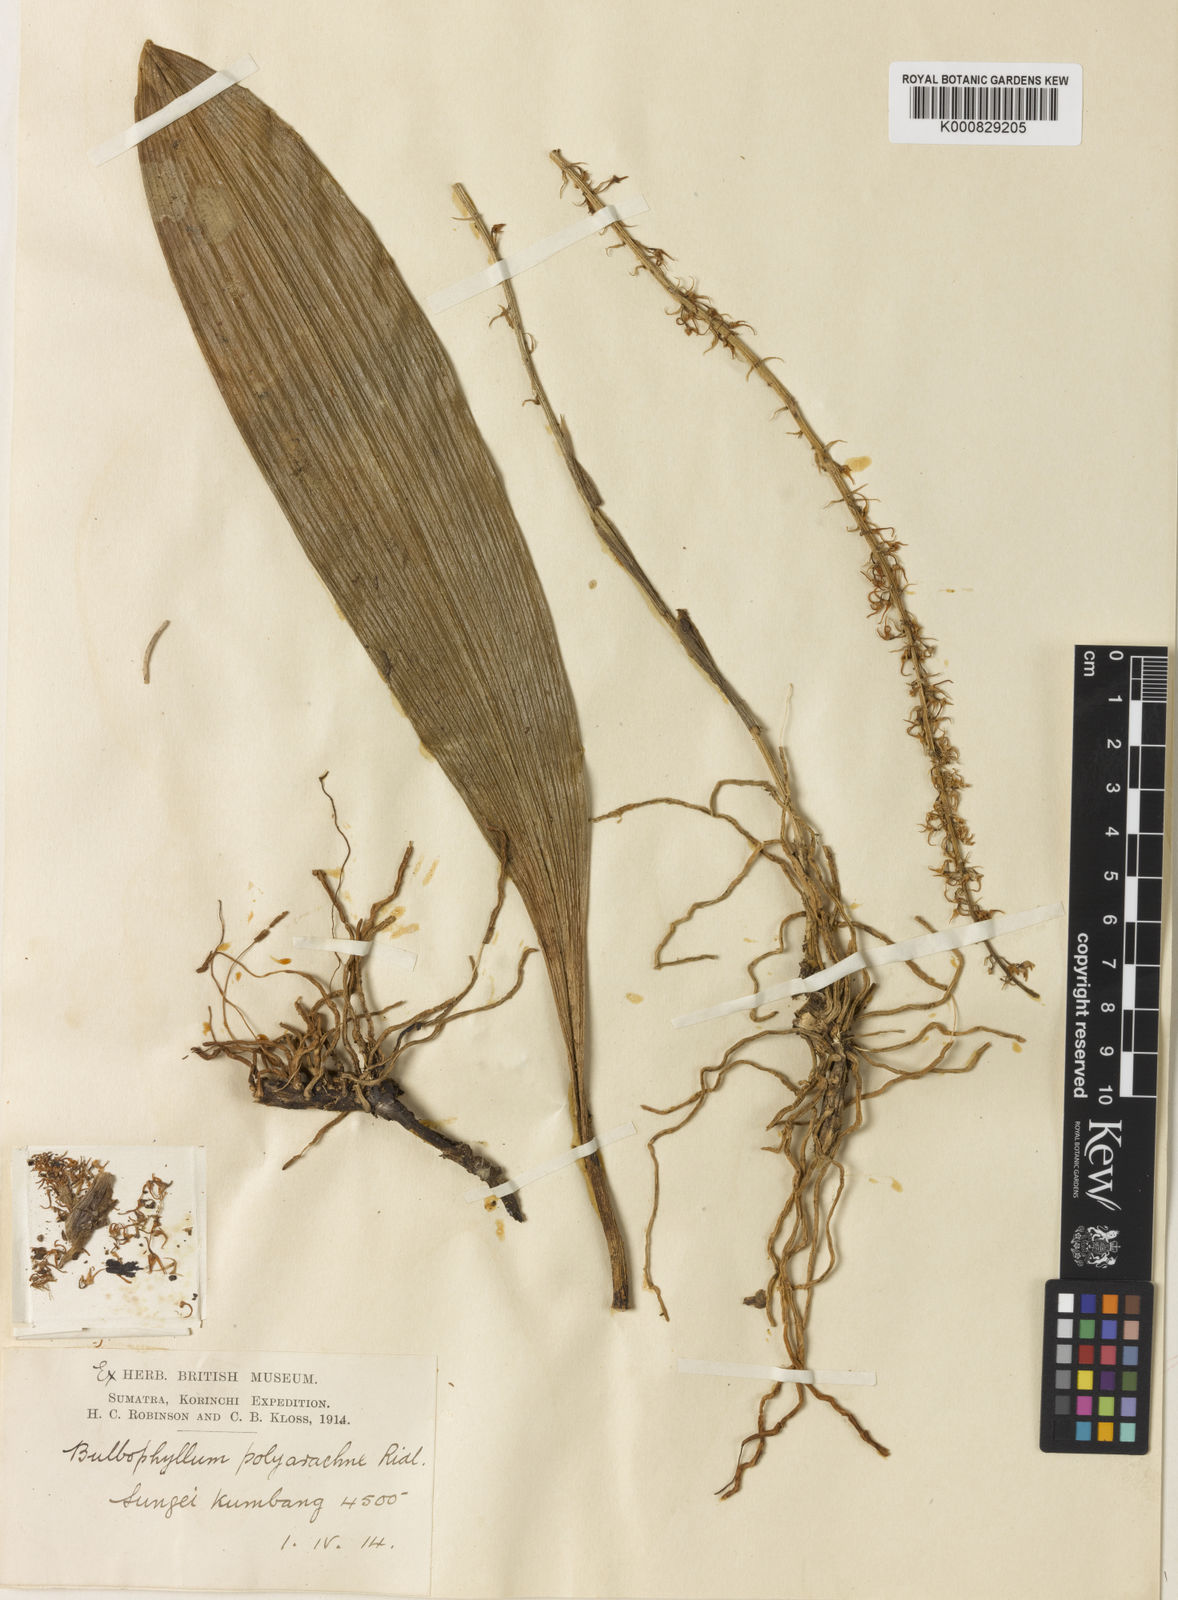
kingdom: Plantae
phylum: Tracheophyta
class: Liliopsida
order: Asparagales
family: Orchidaceae
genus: Bulbophyllum
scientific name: Bulbophyllum odoratum
